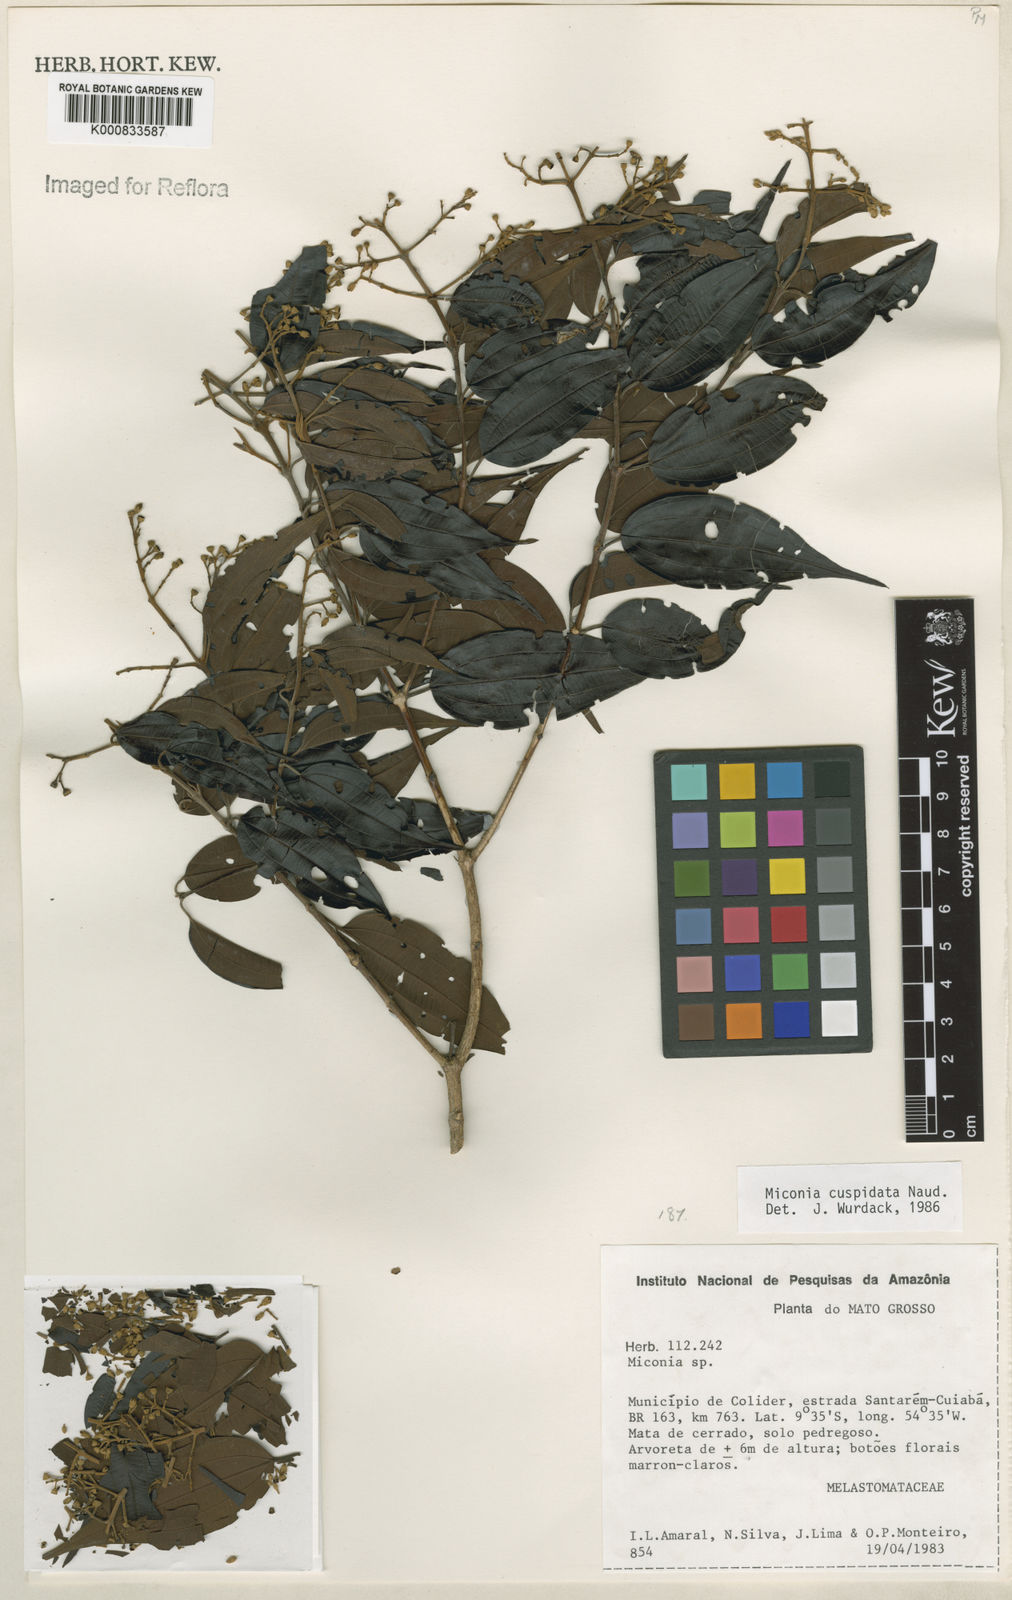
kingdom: Plantae
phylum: Tracheophyta
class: Magnoliopsida
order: Myrtales
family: Melastomataceae
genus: Miconia
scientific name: Miconia cuspidata
